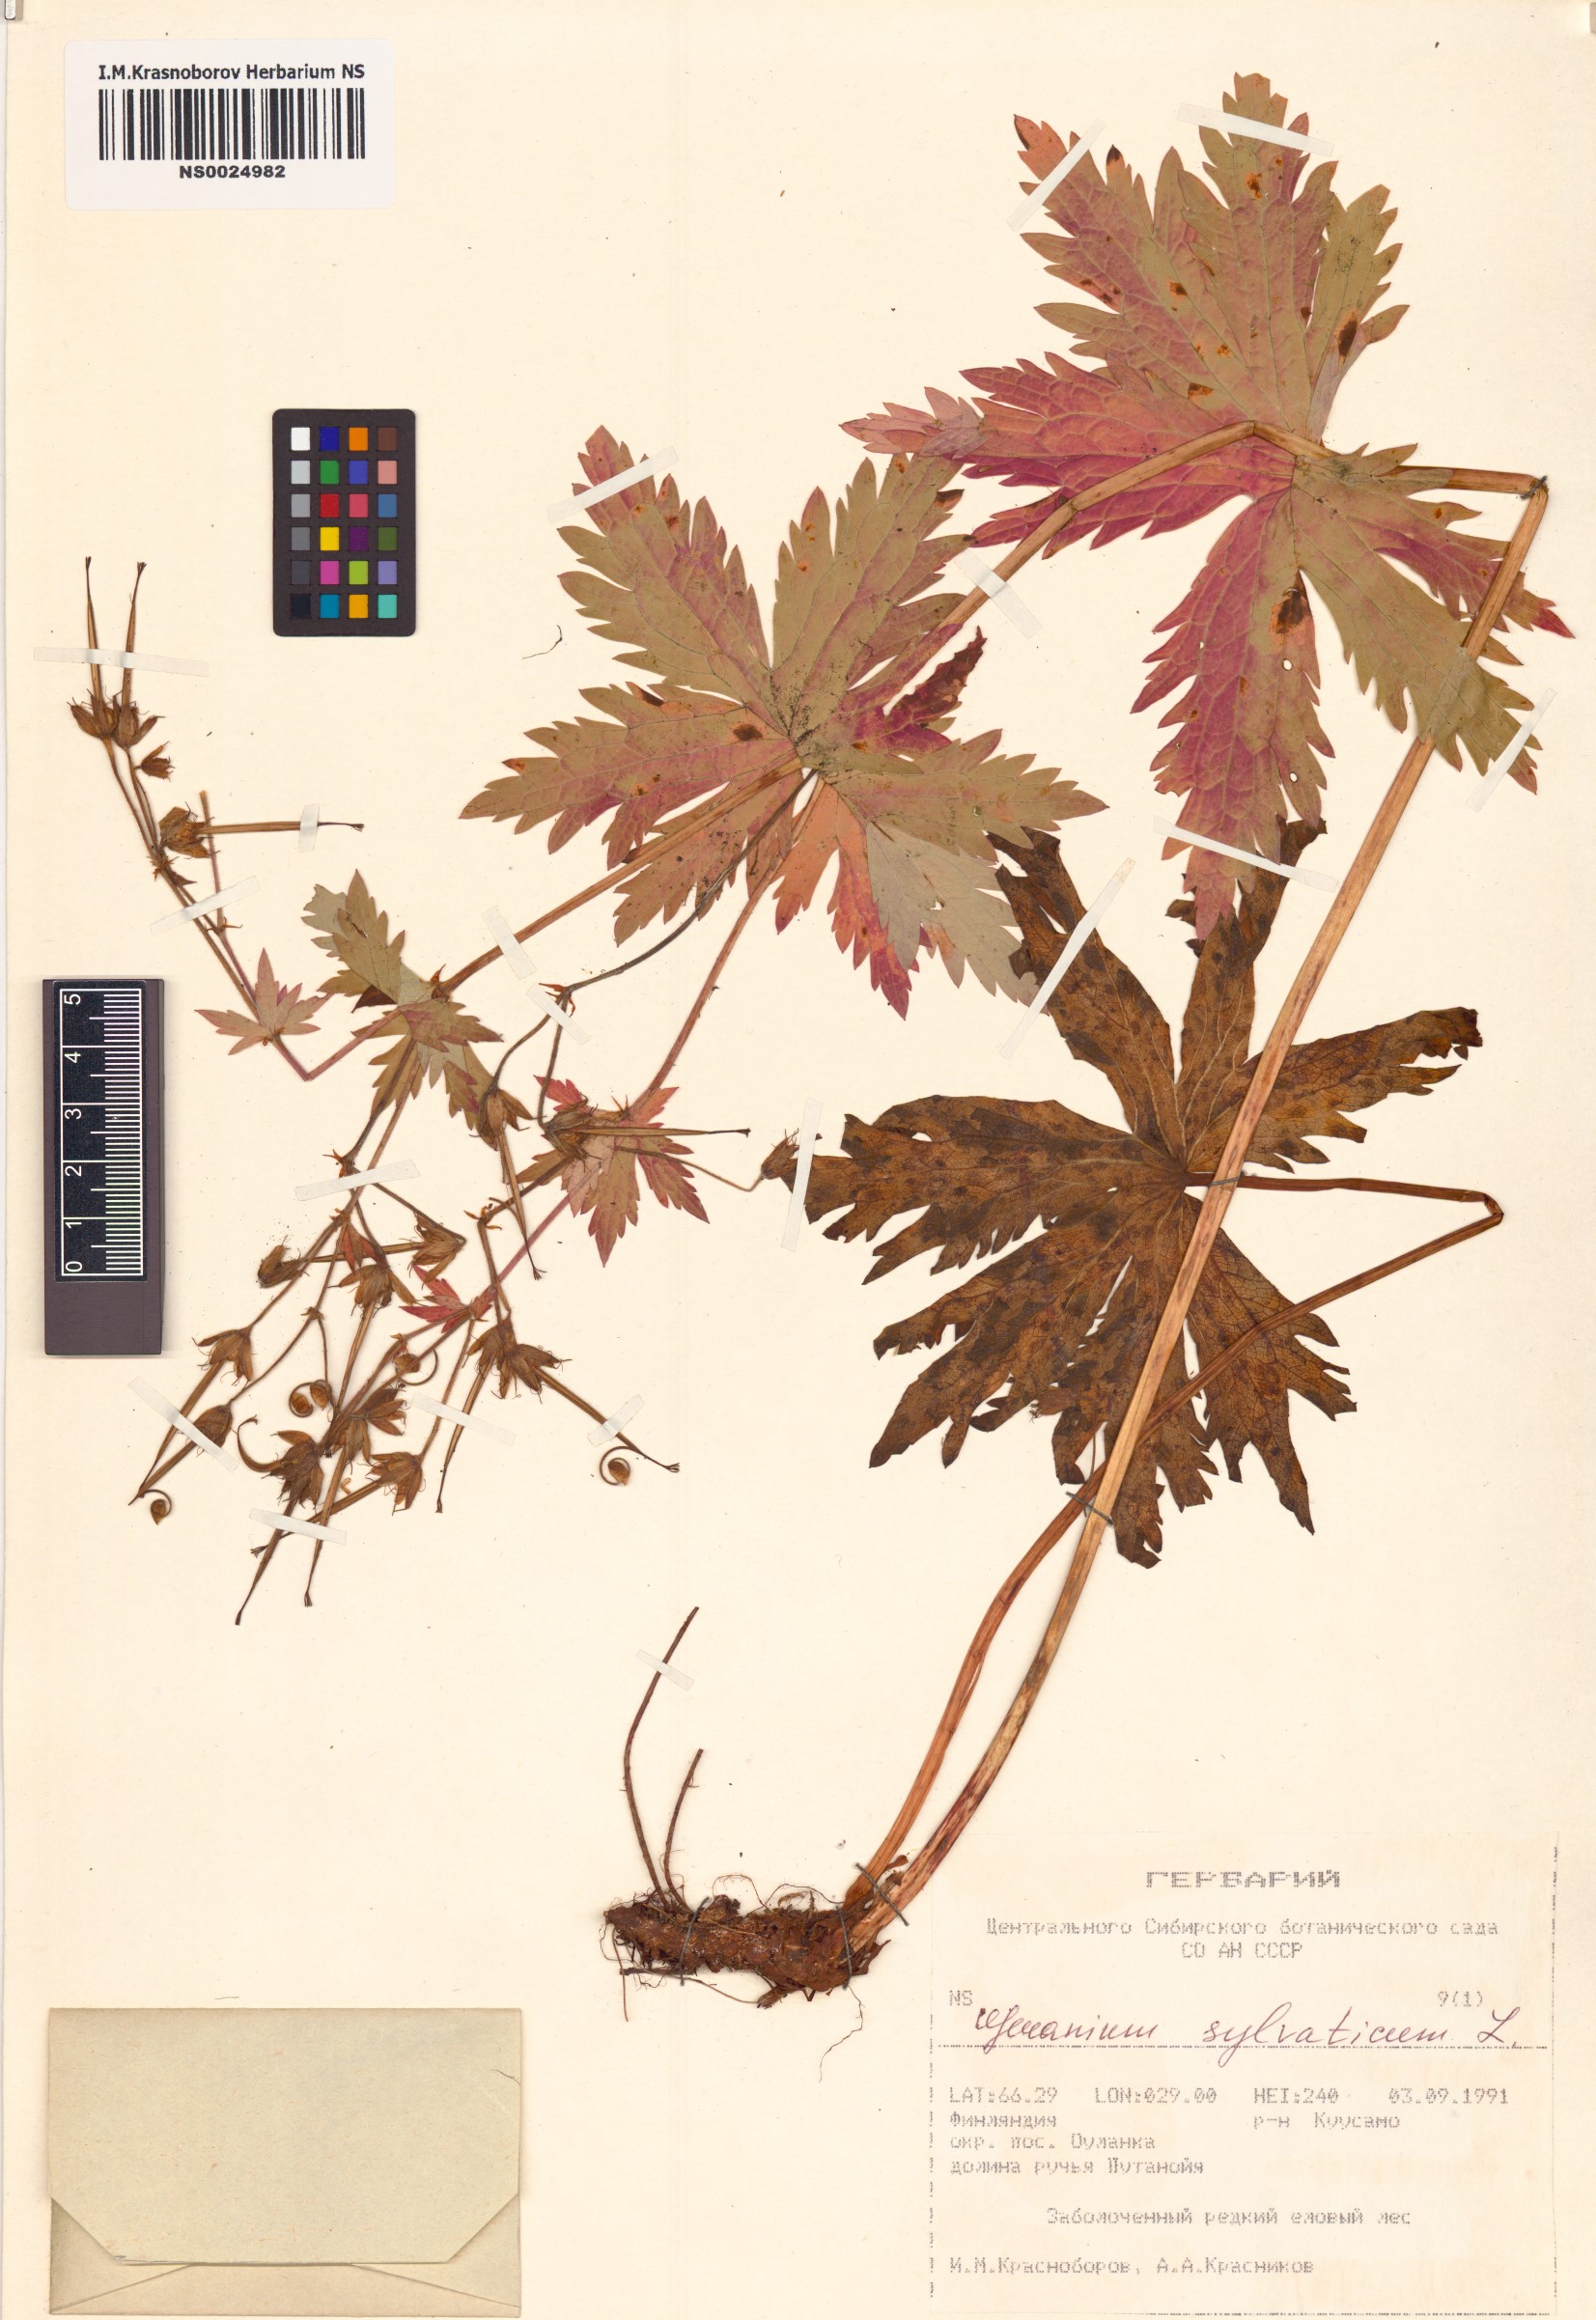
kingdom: Plantae
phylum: Tracheophyta
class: Magnoliopsida
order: Geraniales
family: Geraniaceae
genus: Geranium
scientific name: Geranium sylvaticum
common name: Wood crane's-bill
